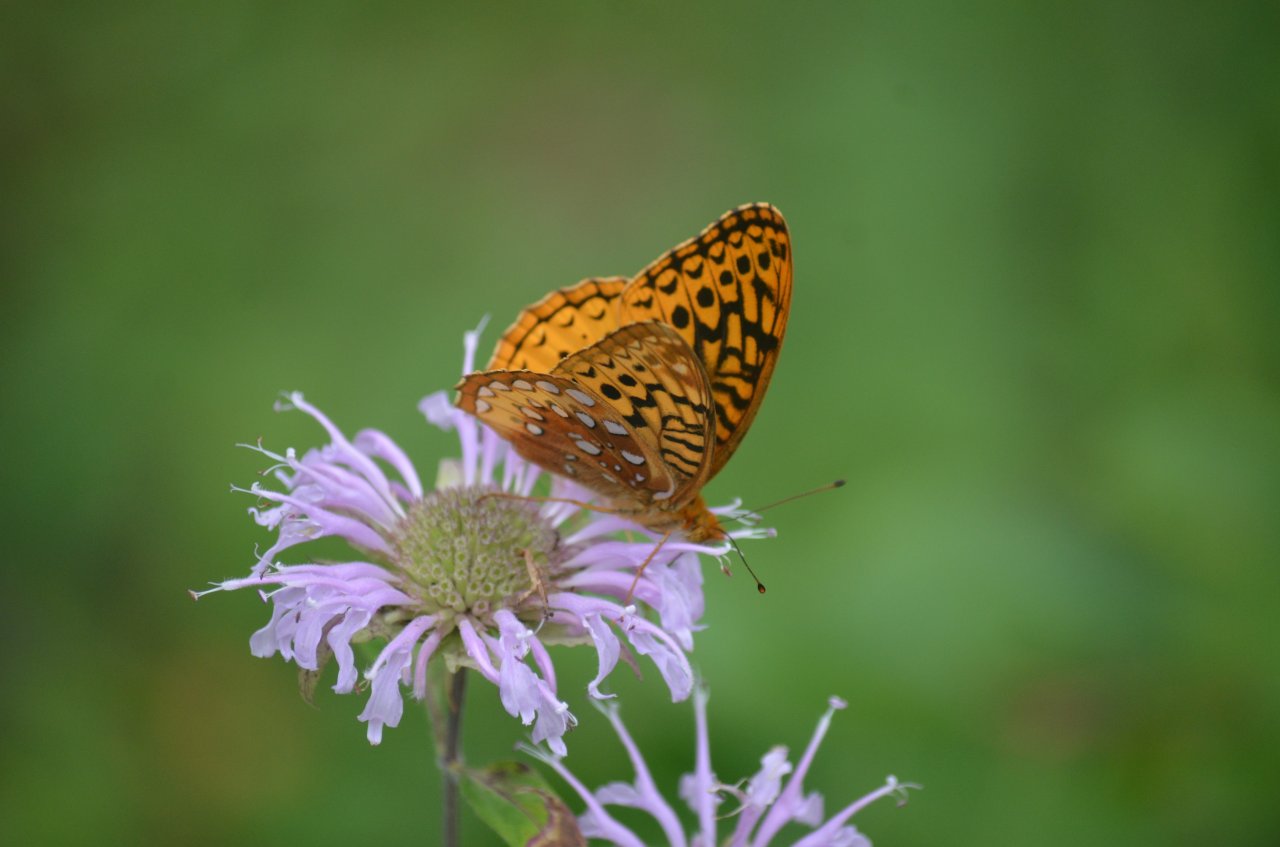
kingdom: Animalia
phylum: Arthropoda
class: Insecta
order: Lepidoptera
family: Nymphalidae
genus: Speyeria
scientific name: Speyeria cybele
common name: Great Spangled Fritillary
